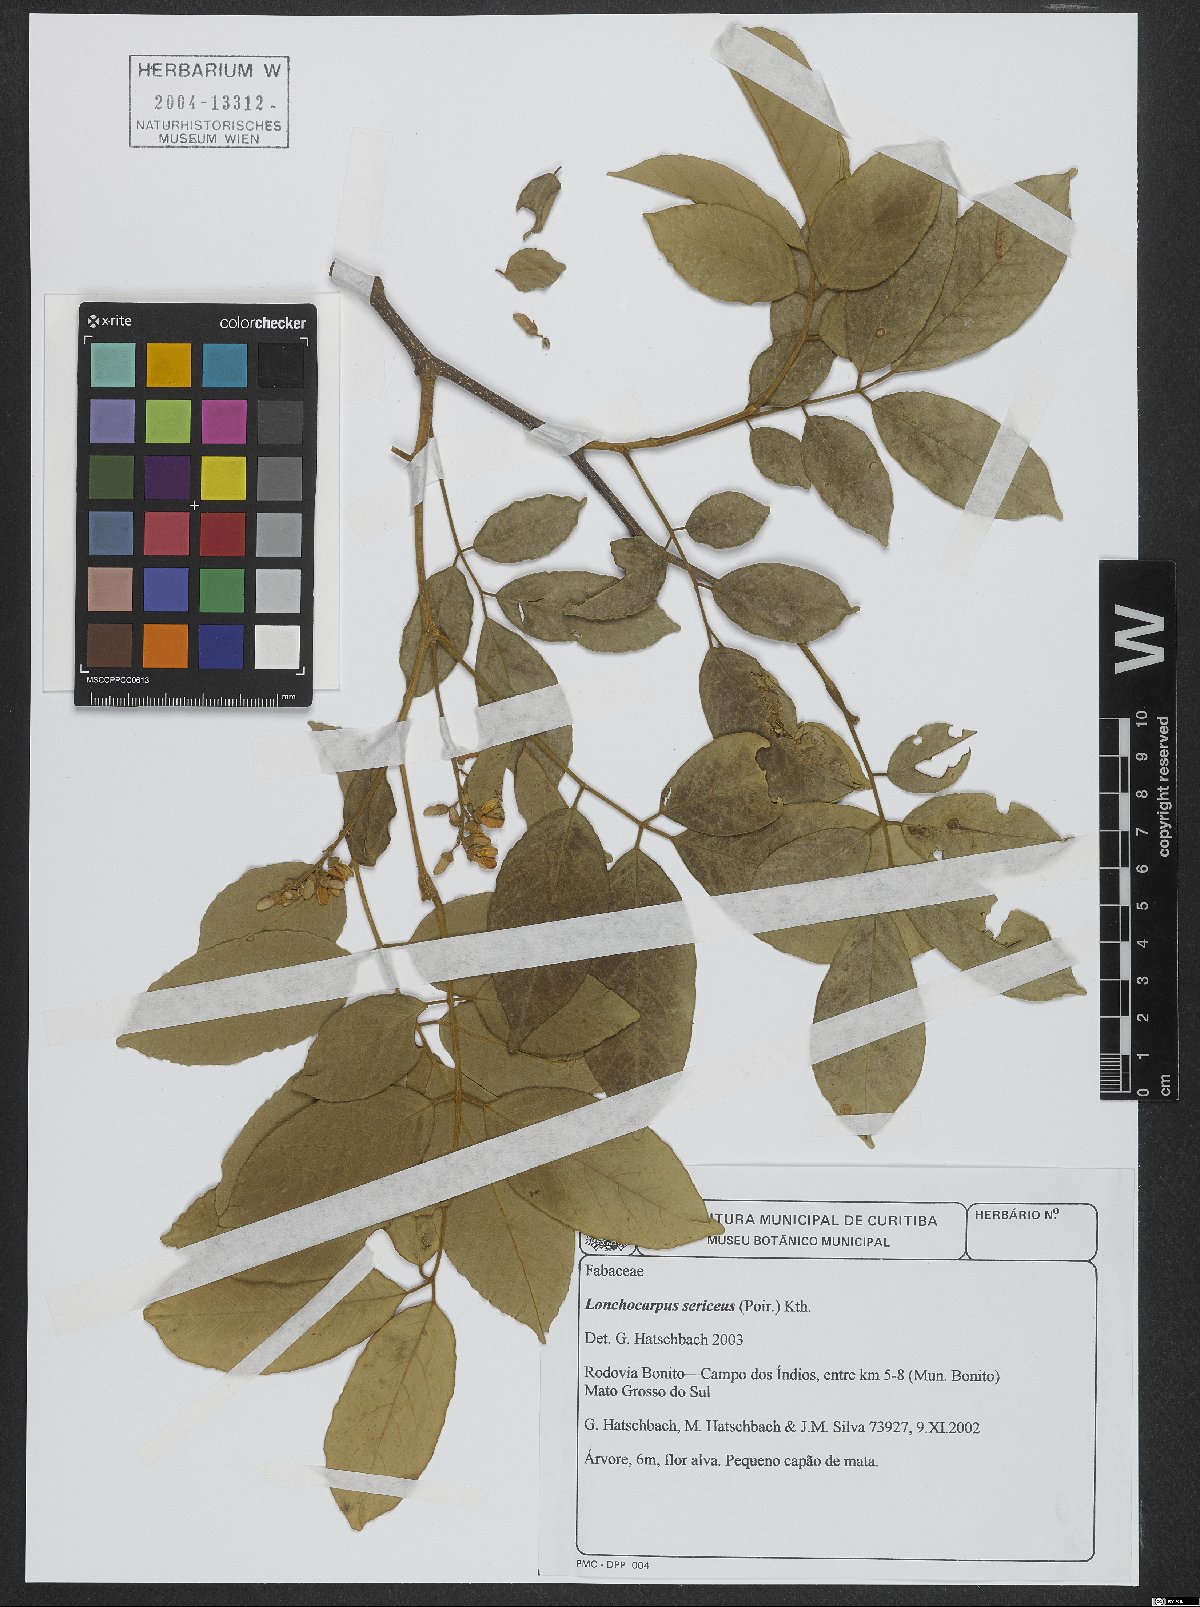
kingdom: Plantae
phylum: Tracheophyta
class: Magnoliopsida
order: Fabales
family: Fabaceae
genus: Lonchocarpus
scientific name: Lonchocarpus sericeus
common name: Savonette
